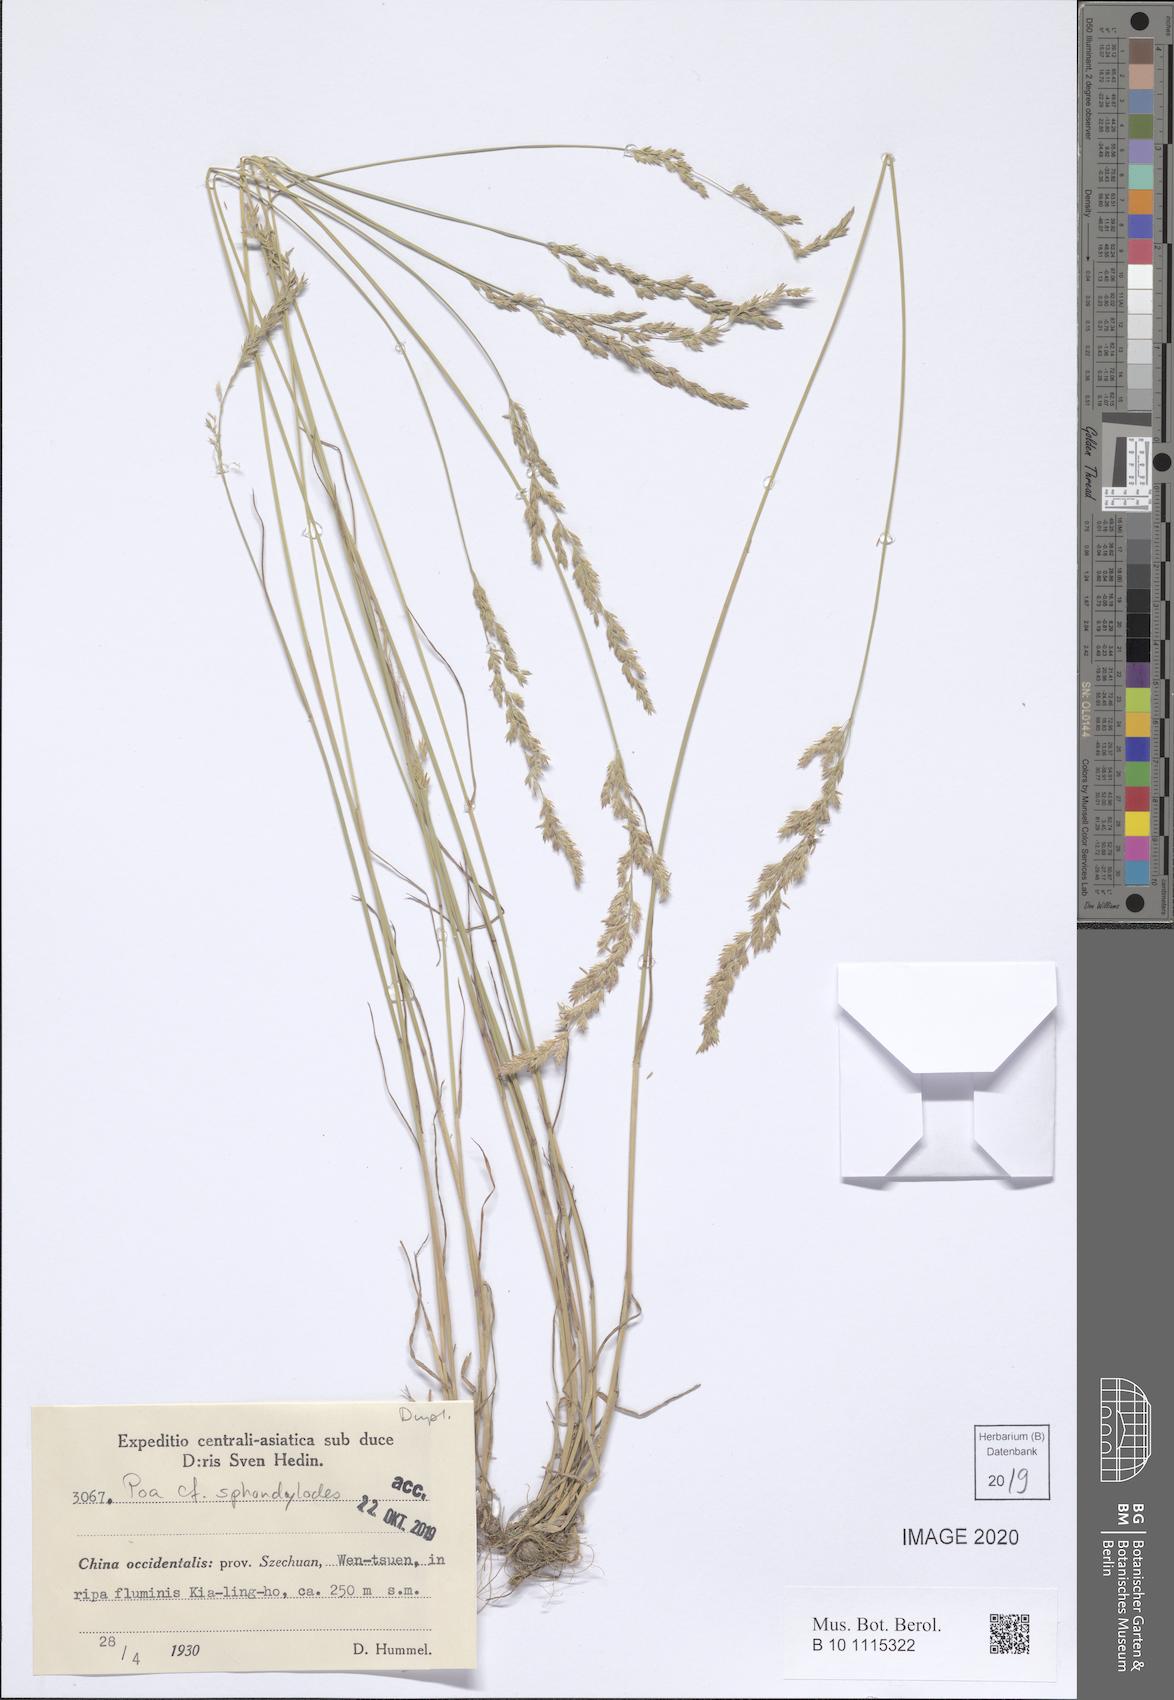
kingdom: Plantae
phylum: Tracheophyta
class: Liliopsida
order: Poales
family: Poaceae
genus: Poa
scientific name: Poa versicolor
